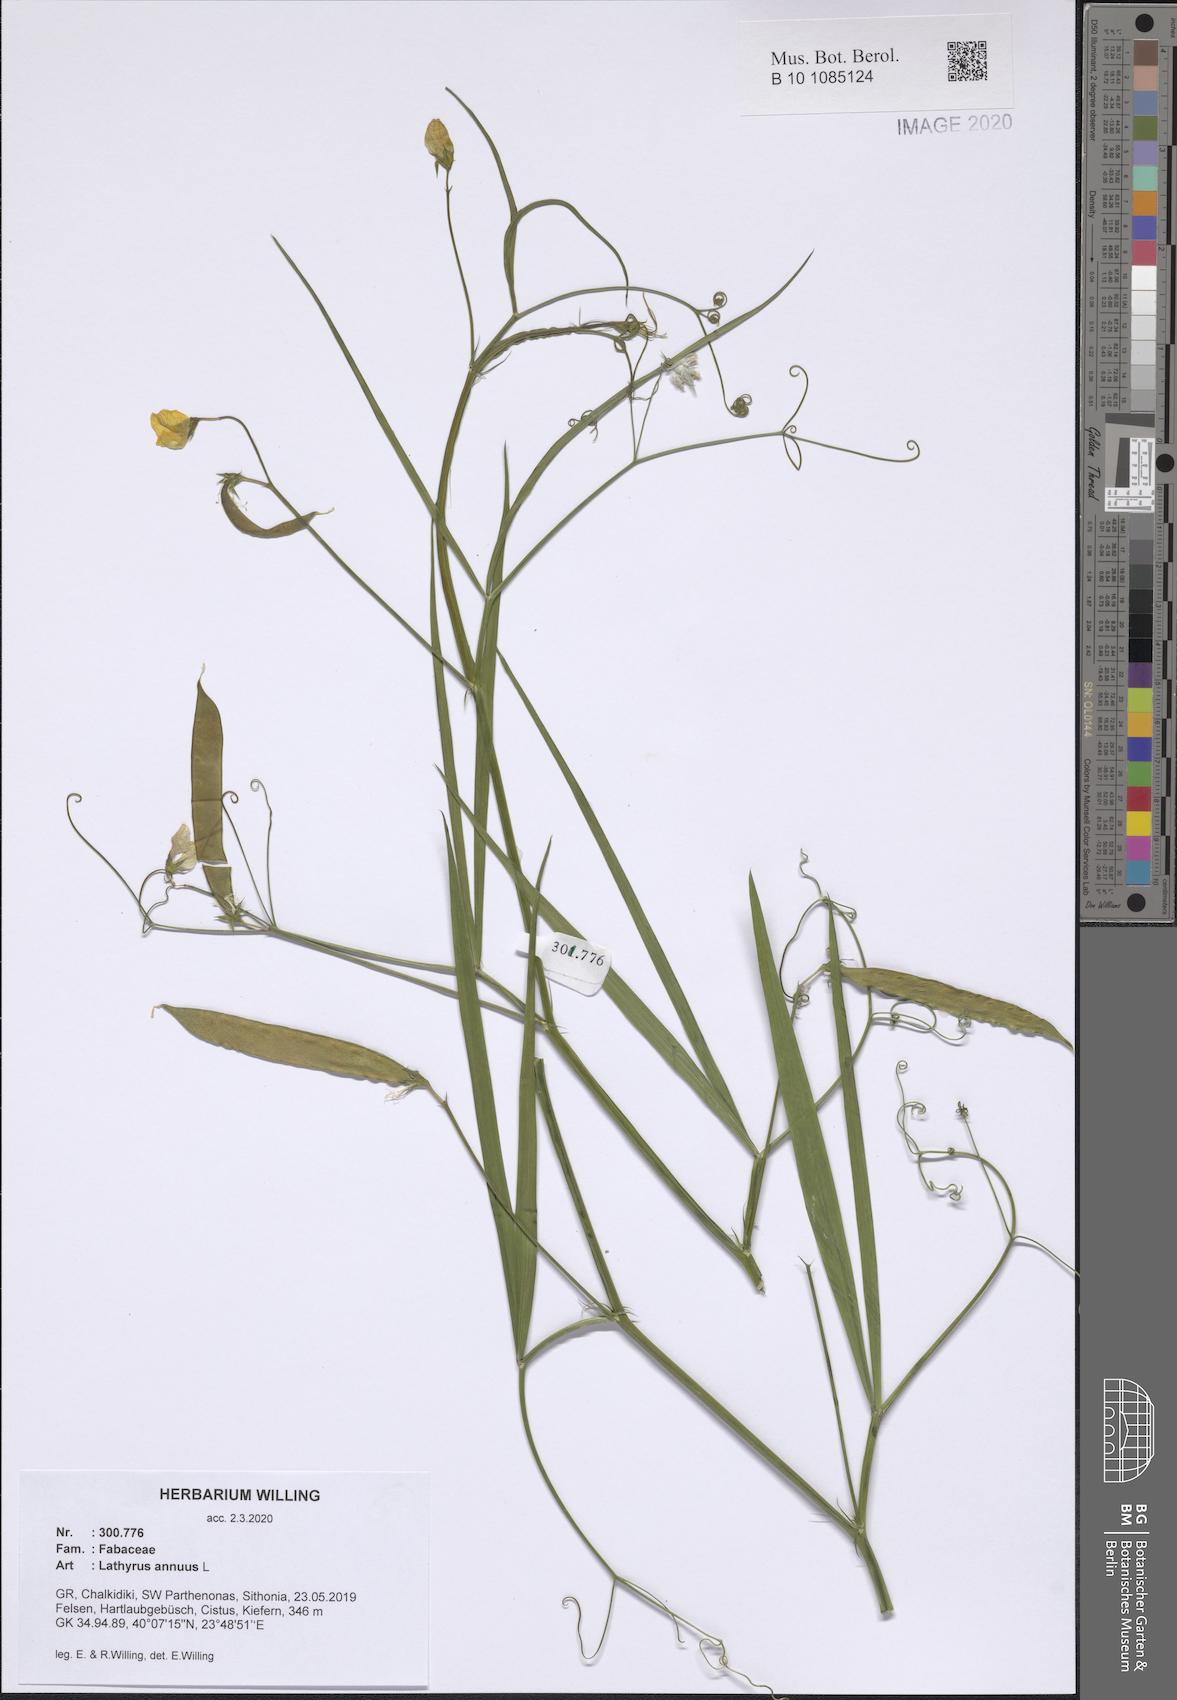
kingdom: Plantae
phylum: Tracheophyta
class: Magnoliopsida
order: Fabales
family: Fabaceae
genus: Lathyrus
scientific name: Lathyrus annuus
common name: Fodder pea
